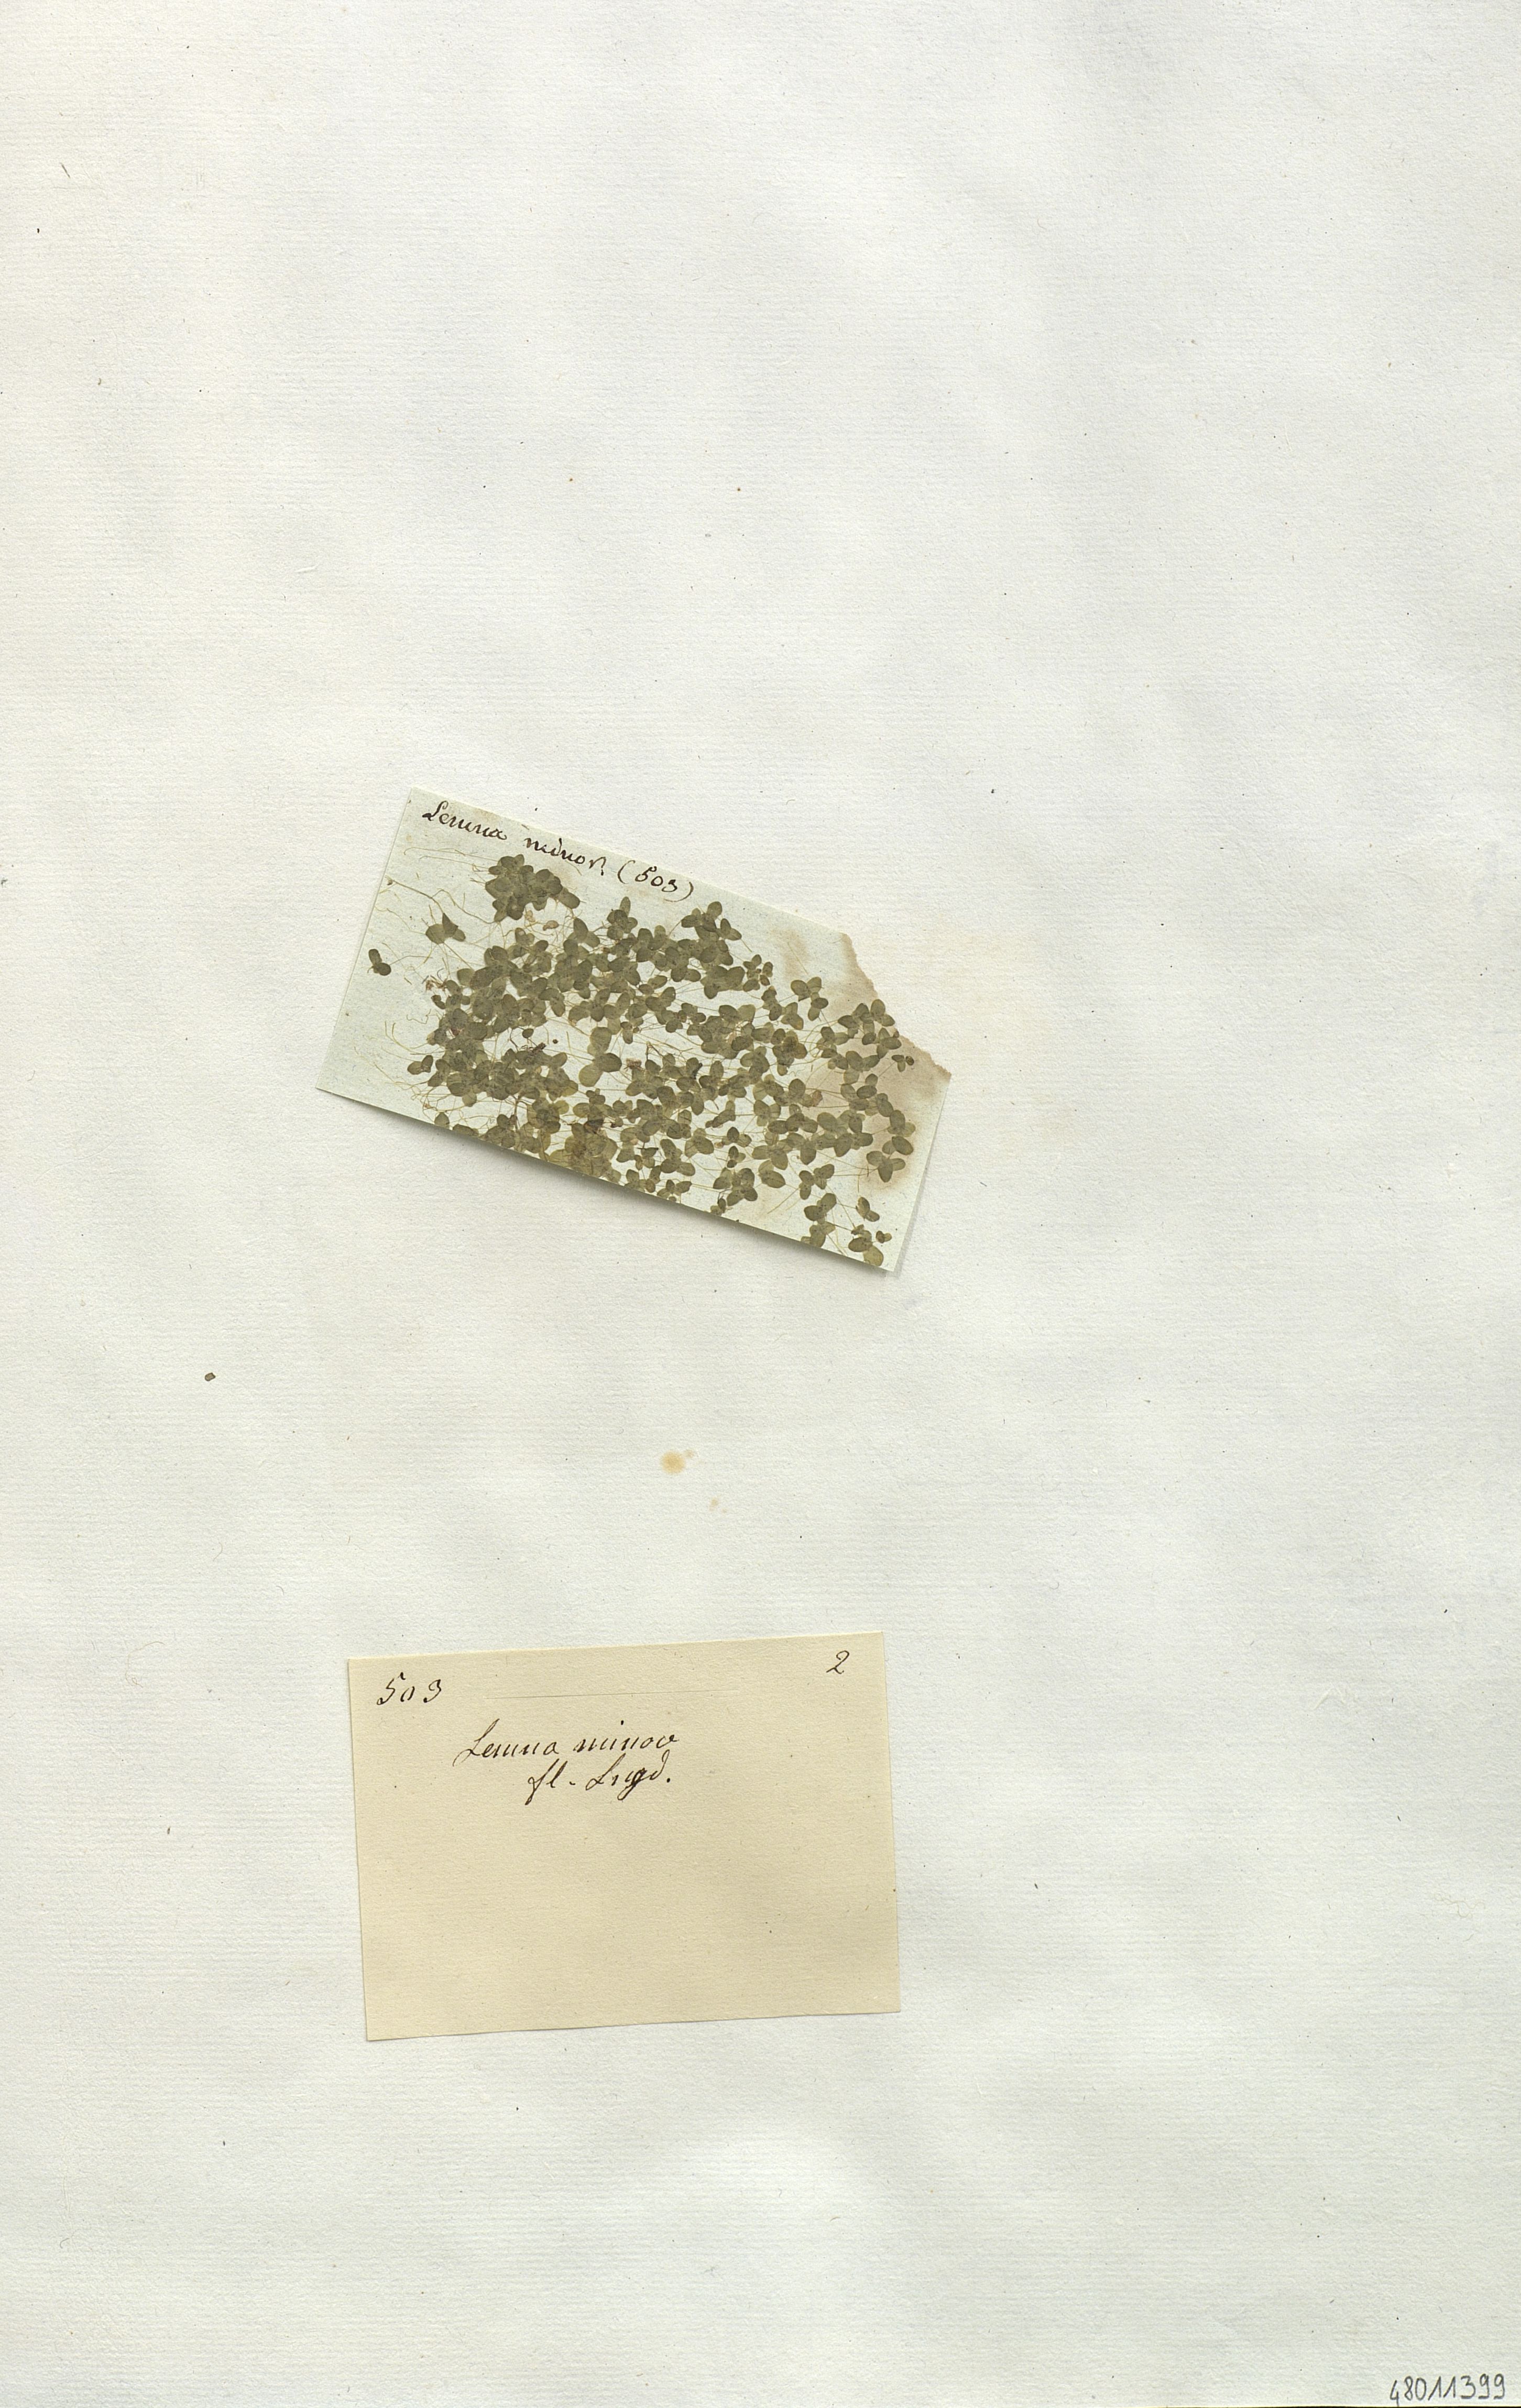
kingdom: Plantae
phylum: Tracheophyta
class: Liliopsida
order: Alismatales
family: Araceae
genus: Lemna
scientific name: Lemna minor
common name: Common duckweed
